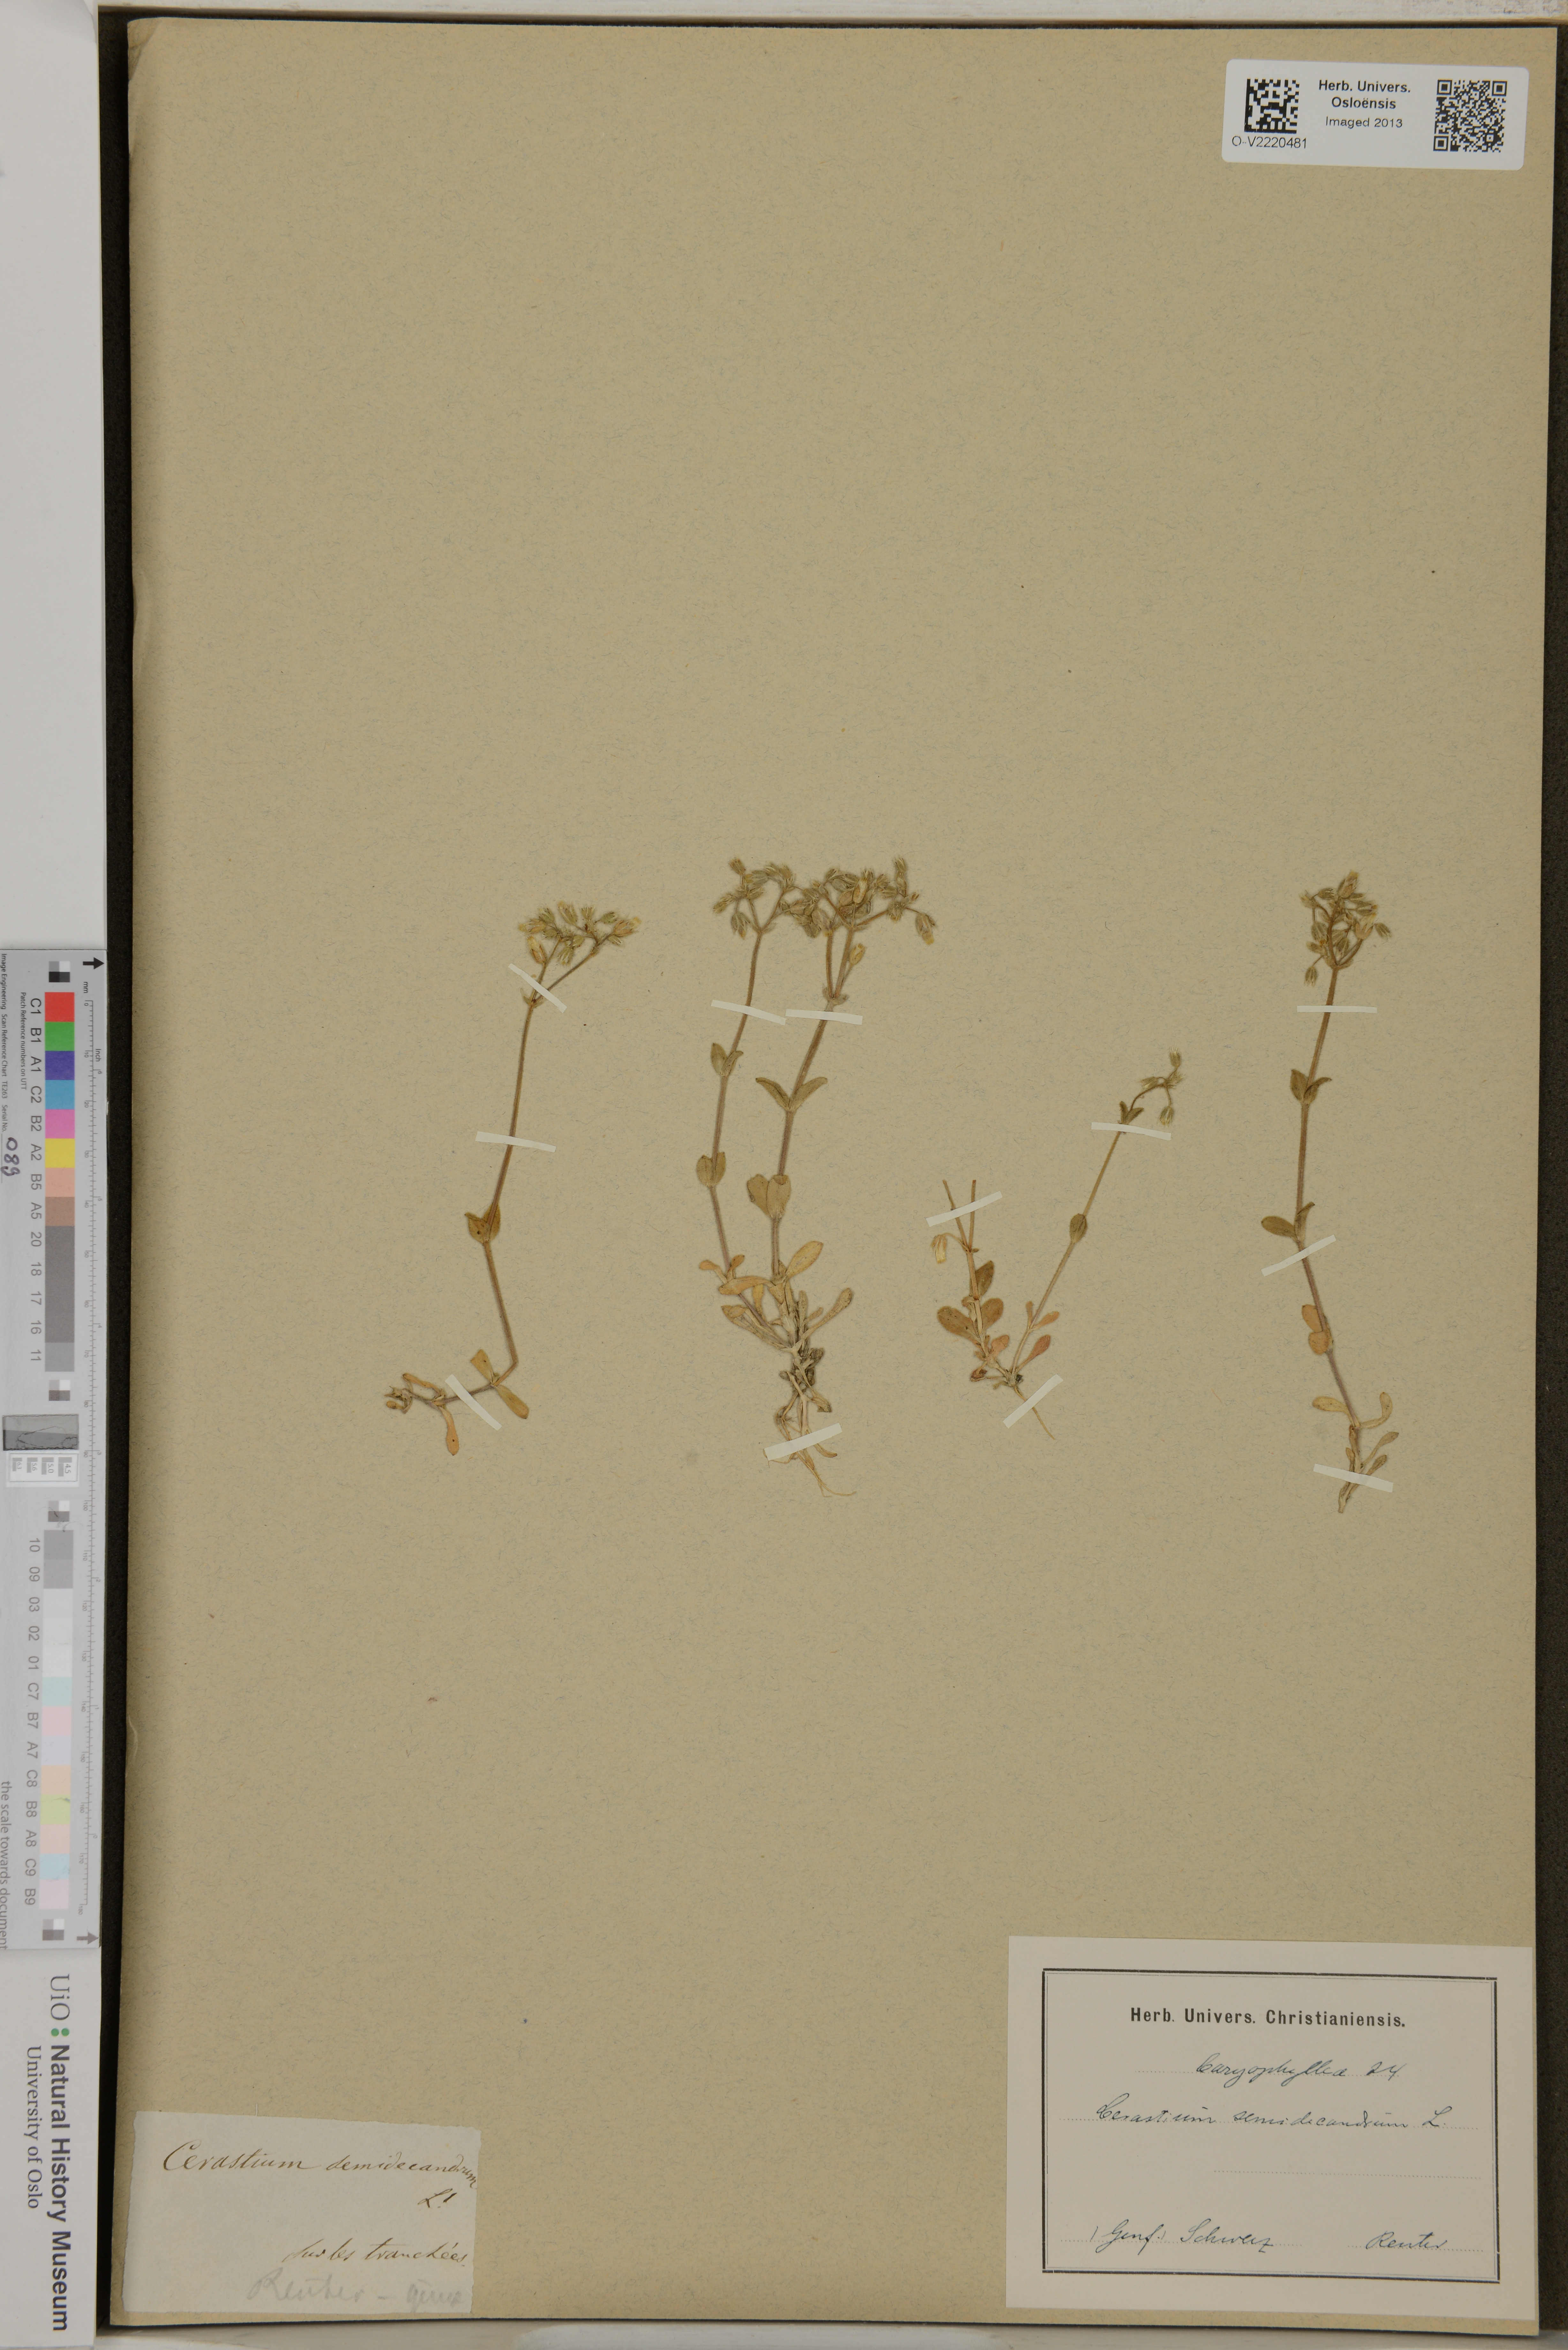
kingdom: Plantae
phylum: Tracheophyta
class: Magnoliopsida
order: Caryophyllales
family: Caryophyllaceae
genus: Cerastium
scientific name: Cerastium semidecandrum
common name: Little mouse-ear
